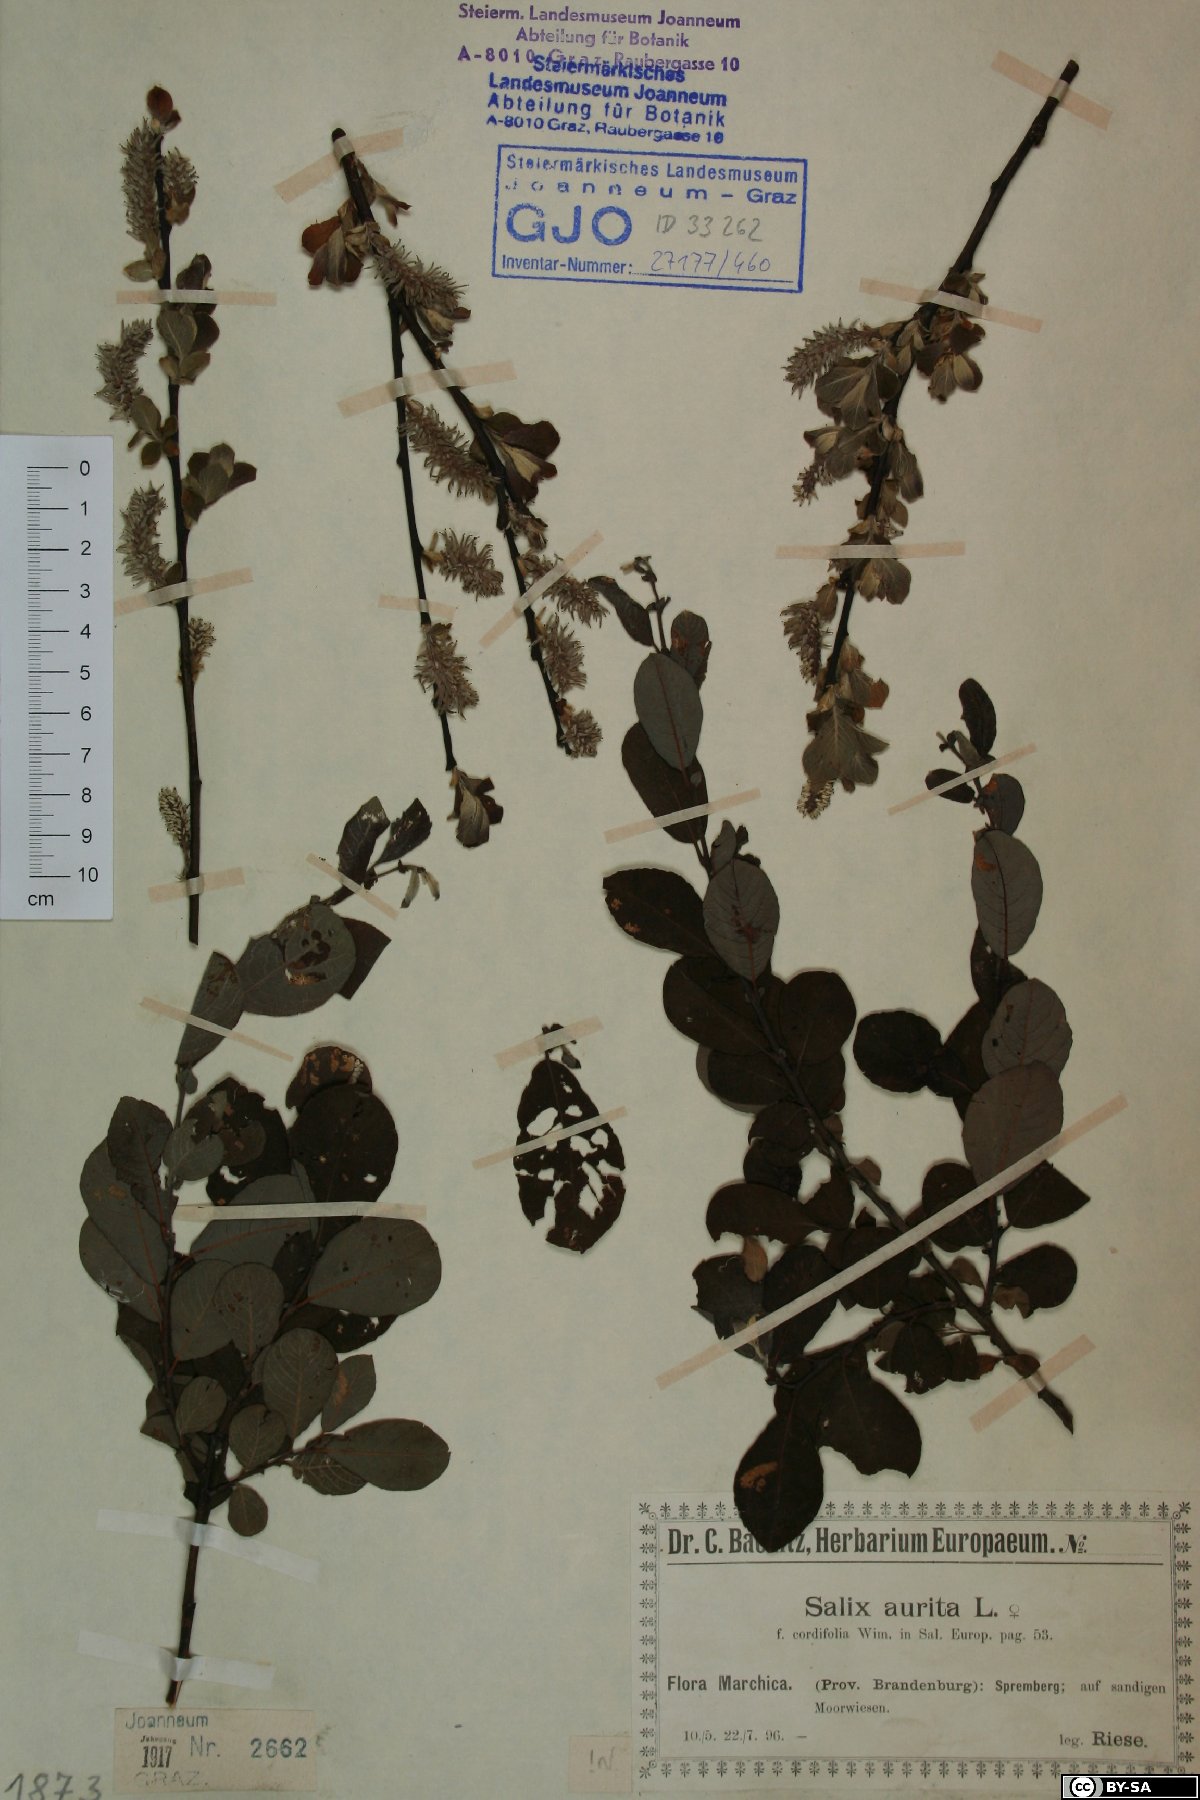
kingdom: Plantae
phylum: Tracheophyta
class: Magnoliopsida
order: Malpighiales
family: Salicaceae
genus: Salix
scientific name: Salix aurita
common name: Eared willow
